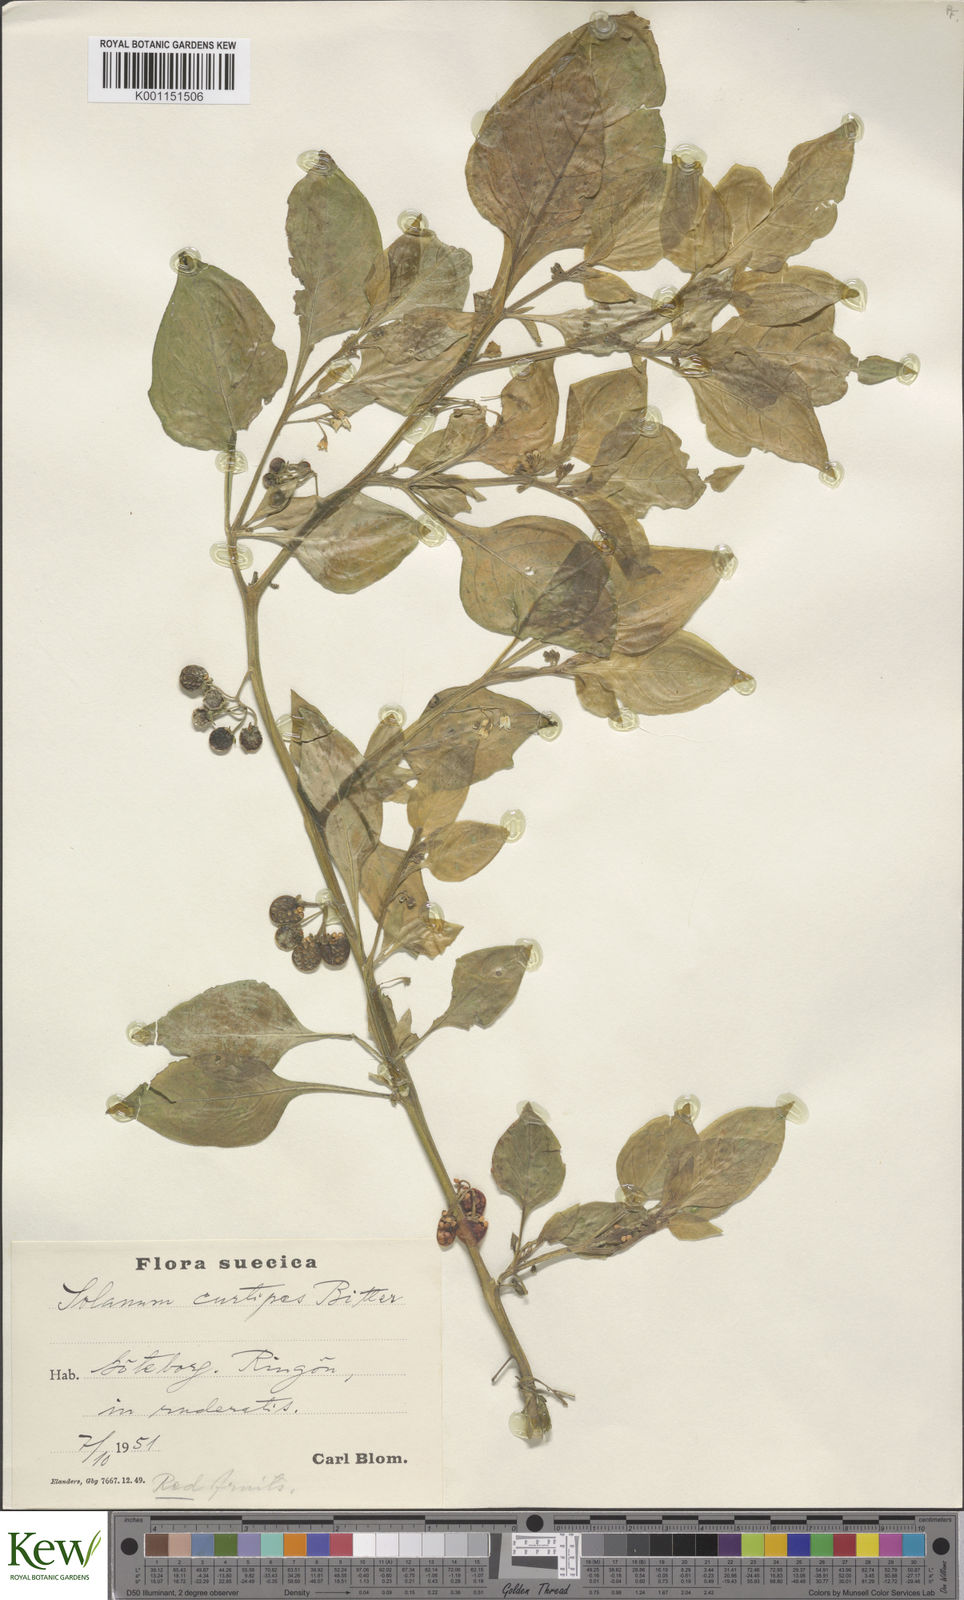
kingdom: Plantae
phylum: Tracheophyta
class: Magnoliopsida
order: Solanales
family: Solanaceae
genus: Solanum
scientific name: Solanum villosum
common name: Red nightshade
